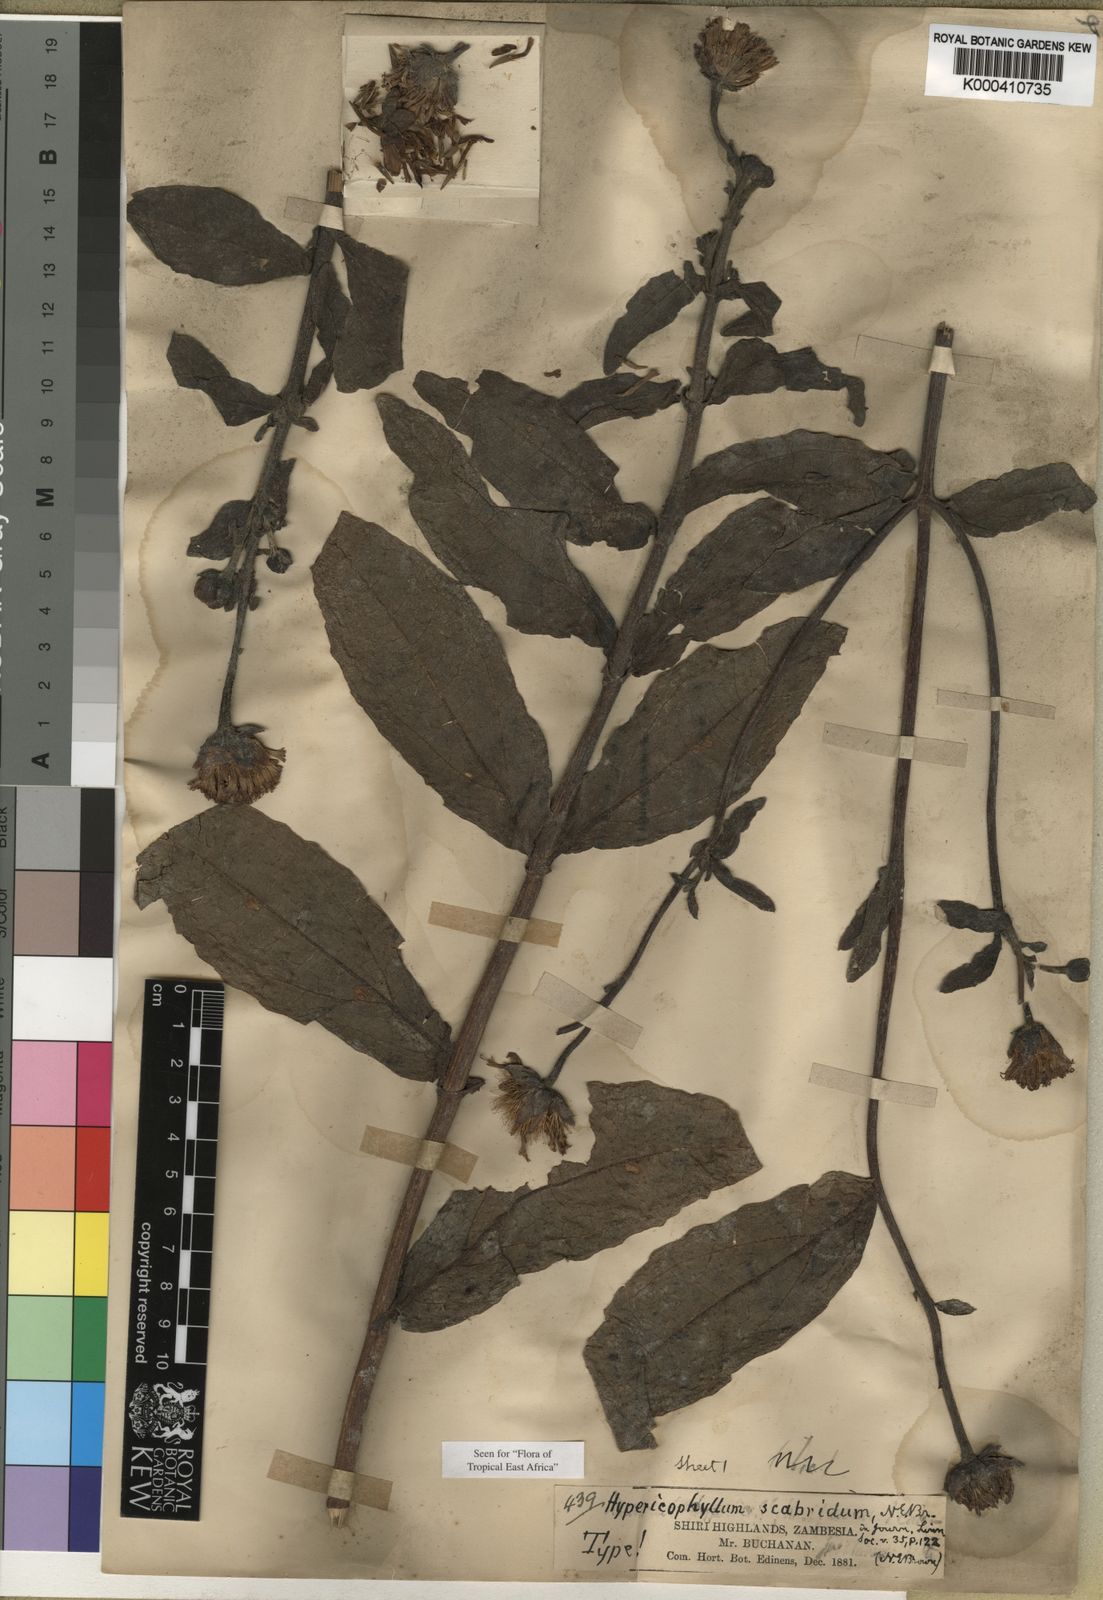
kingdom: Plantae
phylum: Tracheophyta
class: Magnoliopsida
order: Asterales
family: Asteraceae
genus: Hypericophyllum
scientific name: Hypericophyllum angolense
